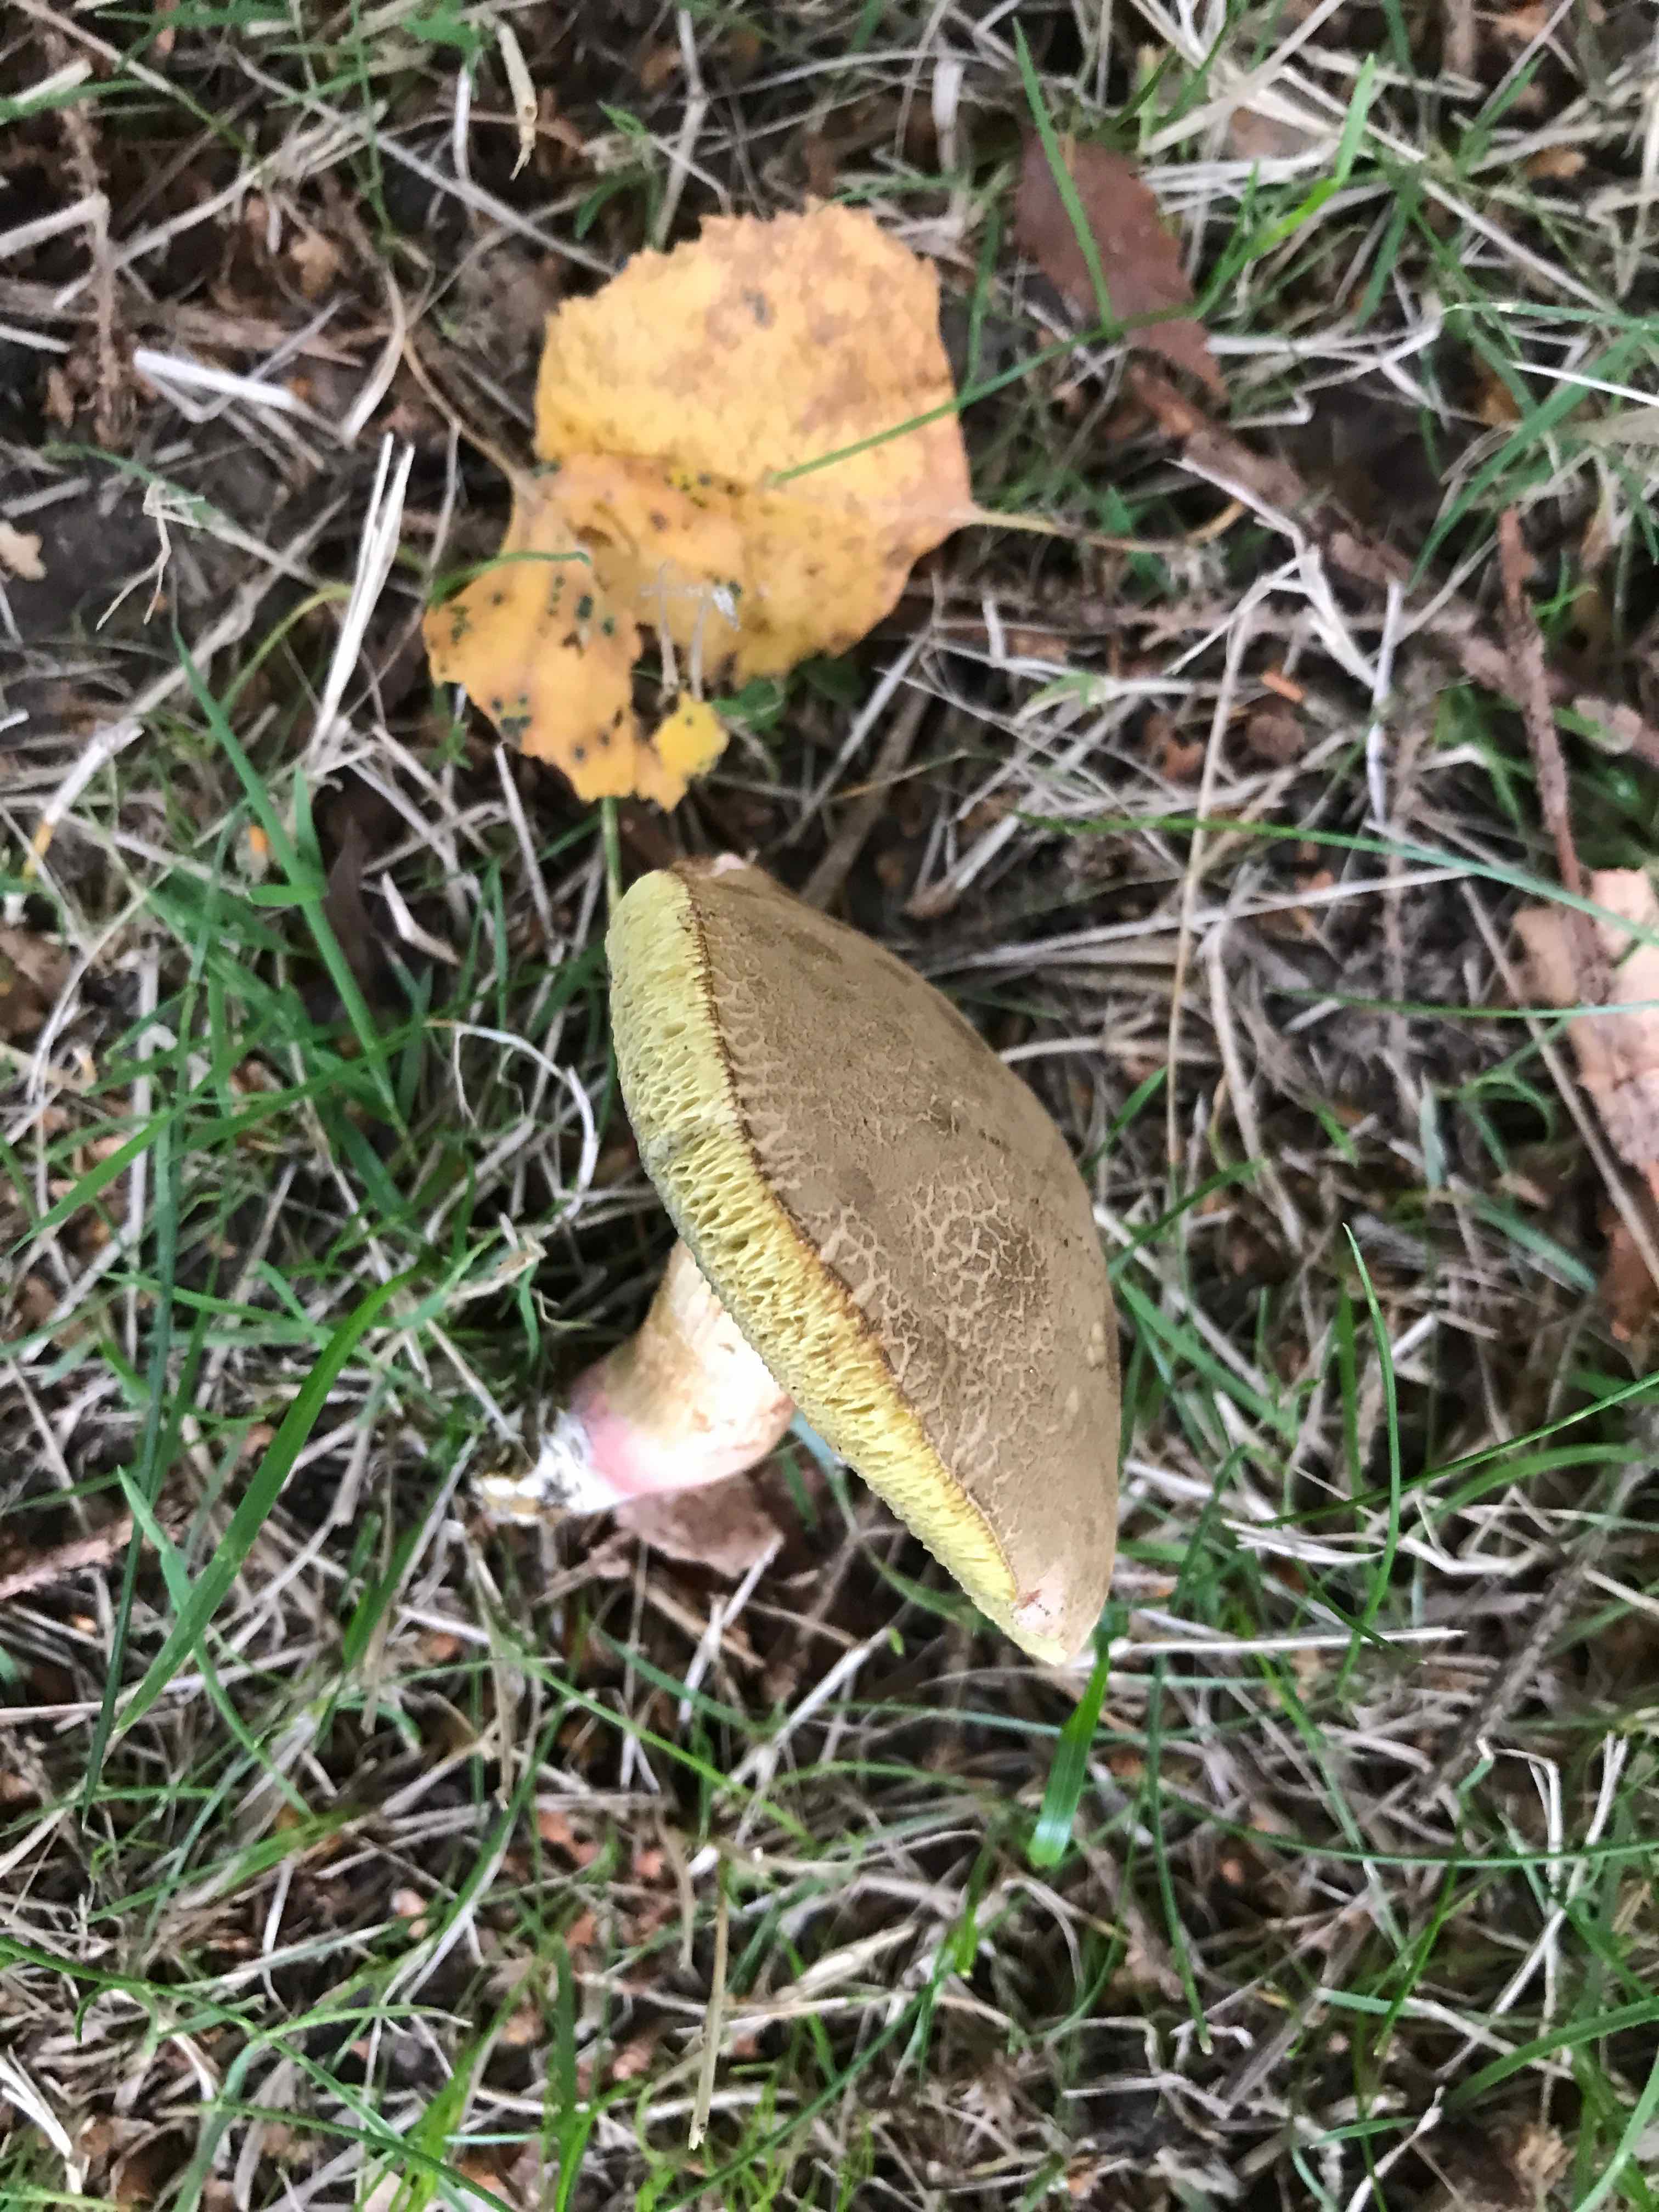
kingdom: Fungi
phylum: Basidiomycota
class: Agaricomycetes
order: Boletales
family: Boletaceae
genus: Hortiboletus
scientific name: Hortiboletus
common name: dværgrørhat
